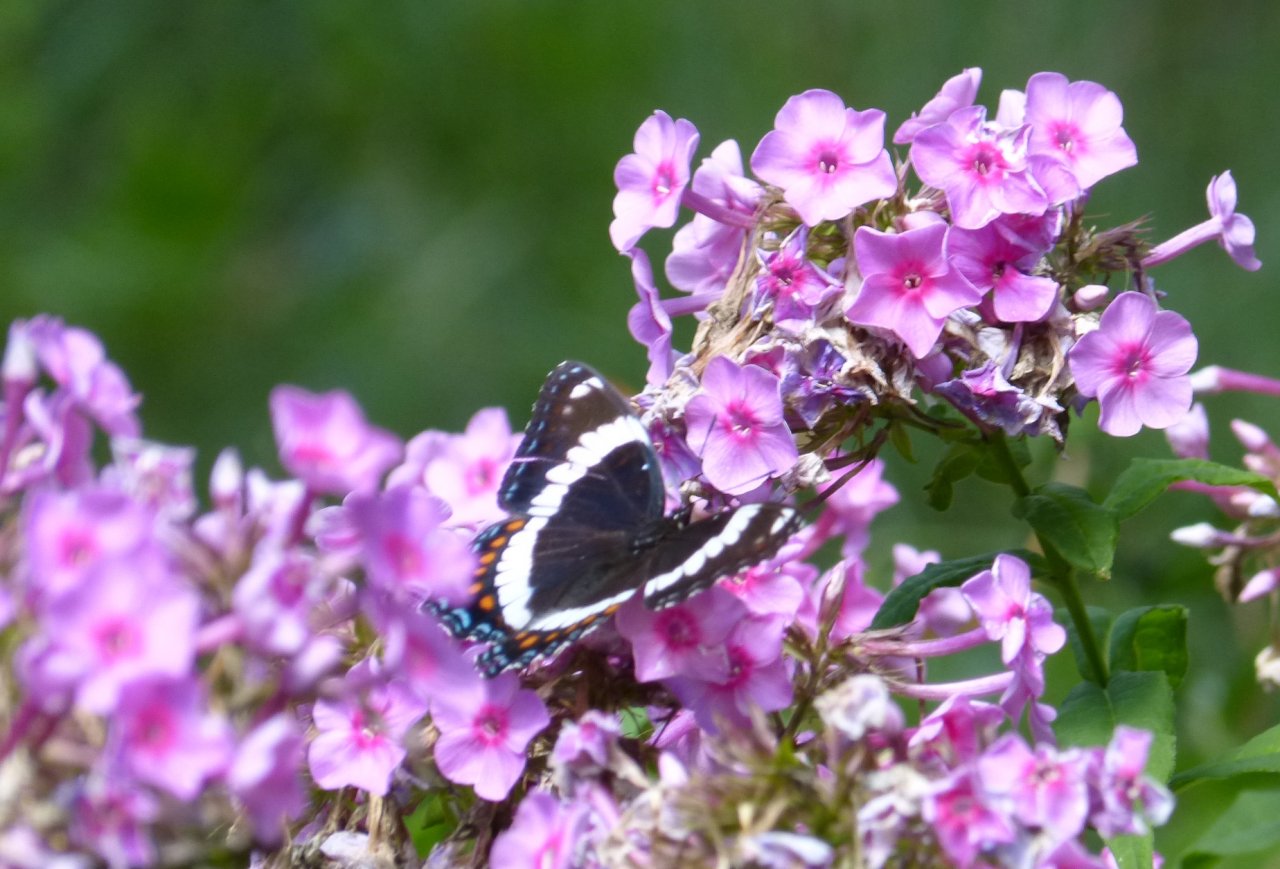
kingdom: Animalia
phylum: Arthropoda
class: Insecta
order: Lepidoptera
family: Nymphalidae
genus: Limenitis
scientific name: Limenitis arthemis
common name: Red-spotted Admiral
